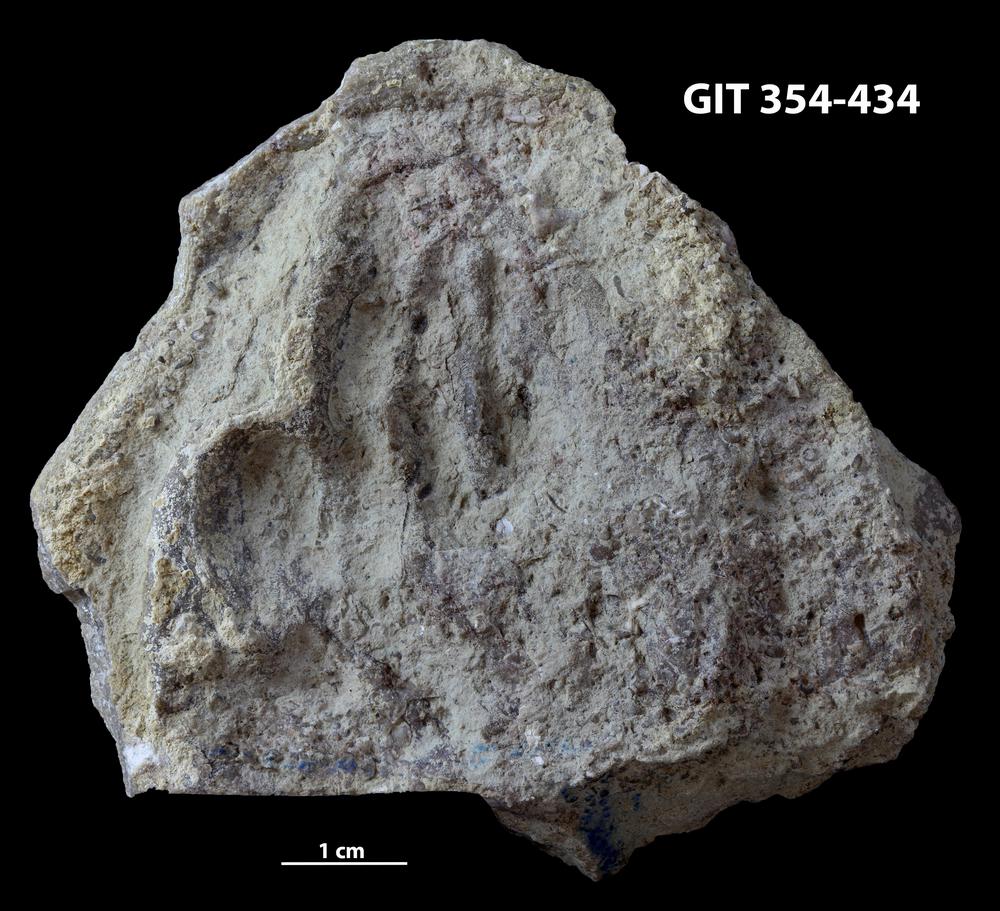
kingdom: Animalia
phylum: Porifera
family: Clathrodictyidae
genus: Clathrodictyon
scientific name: Clathrodictyon Stromatopora variolaris
